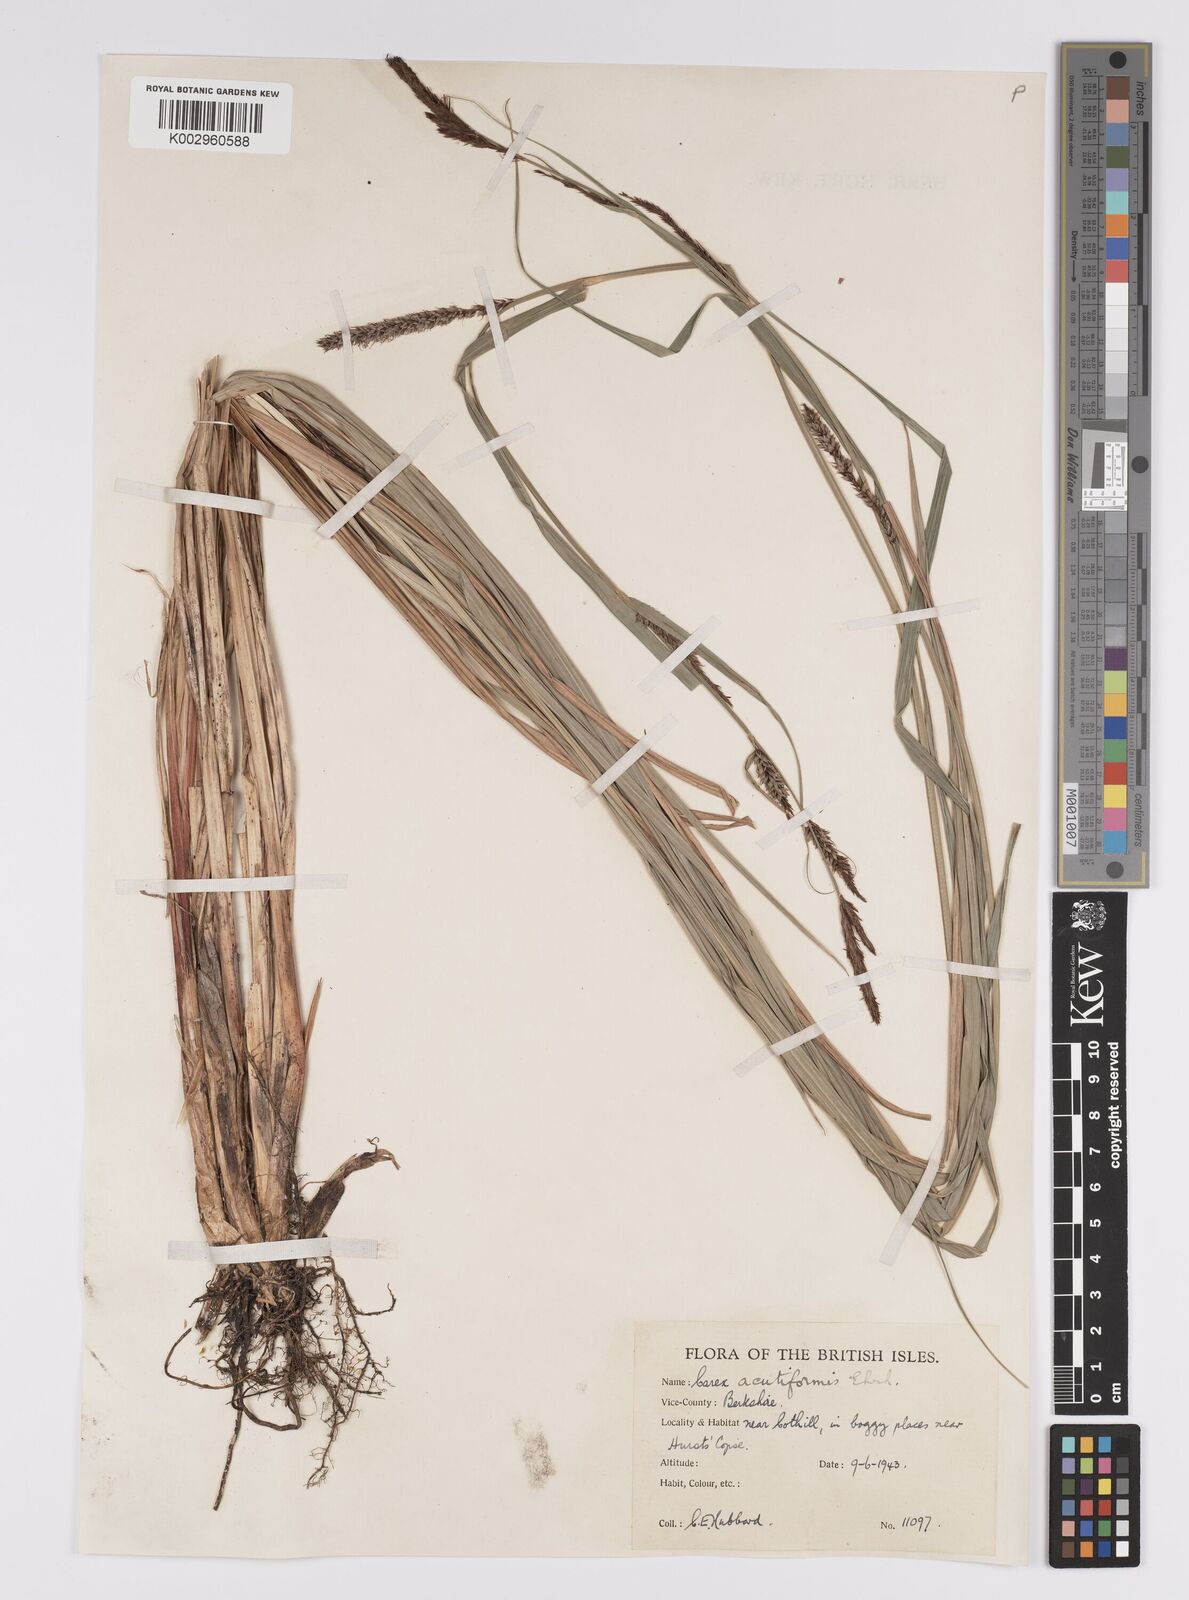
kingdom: Plantae
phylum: Tracheophyta
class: Liliopsida
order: Poales
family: Cyperaceae
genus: Carex
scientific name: Carex acutiformis
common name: Lesser pond-sedge
